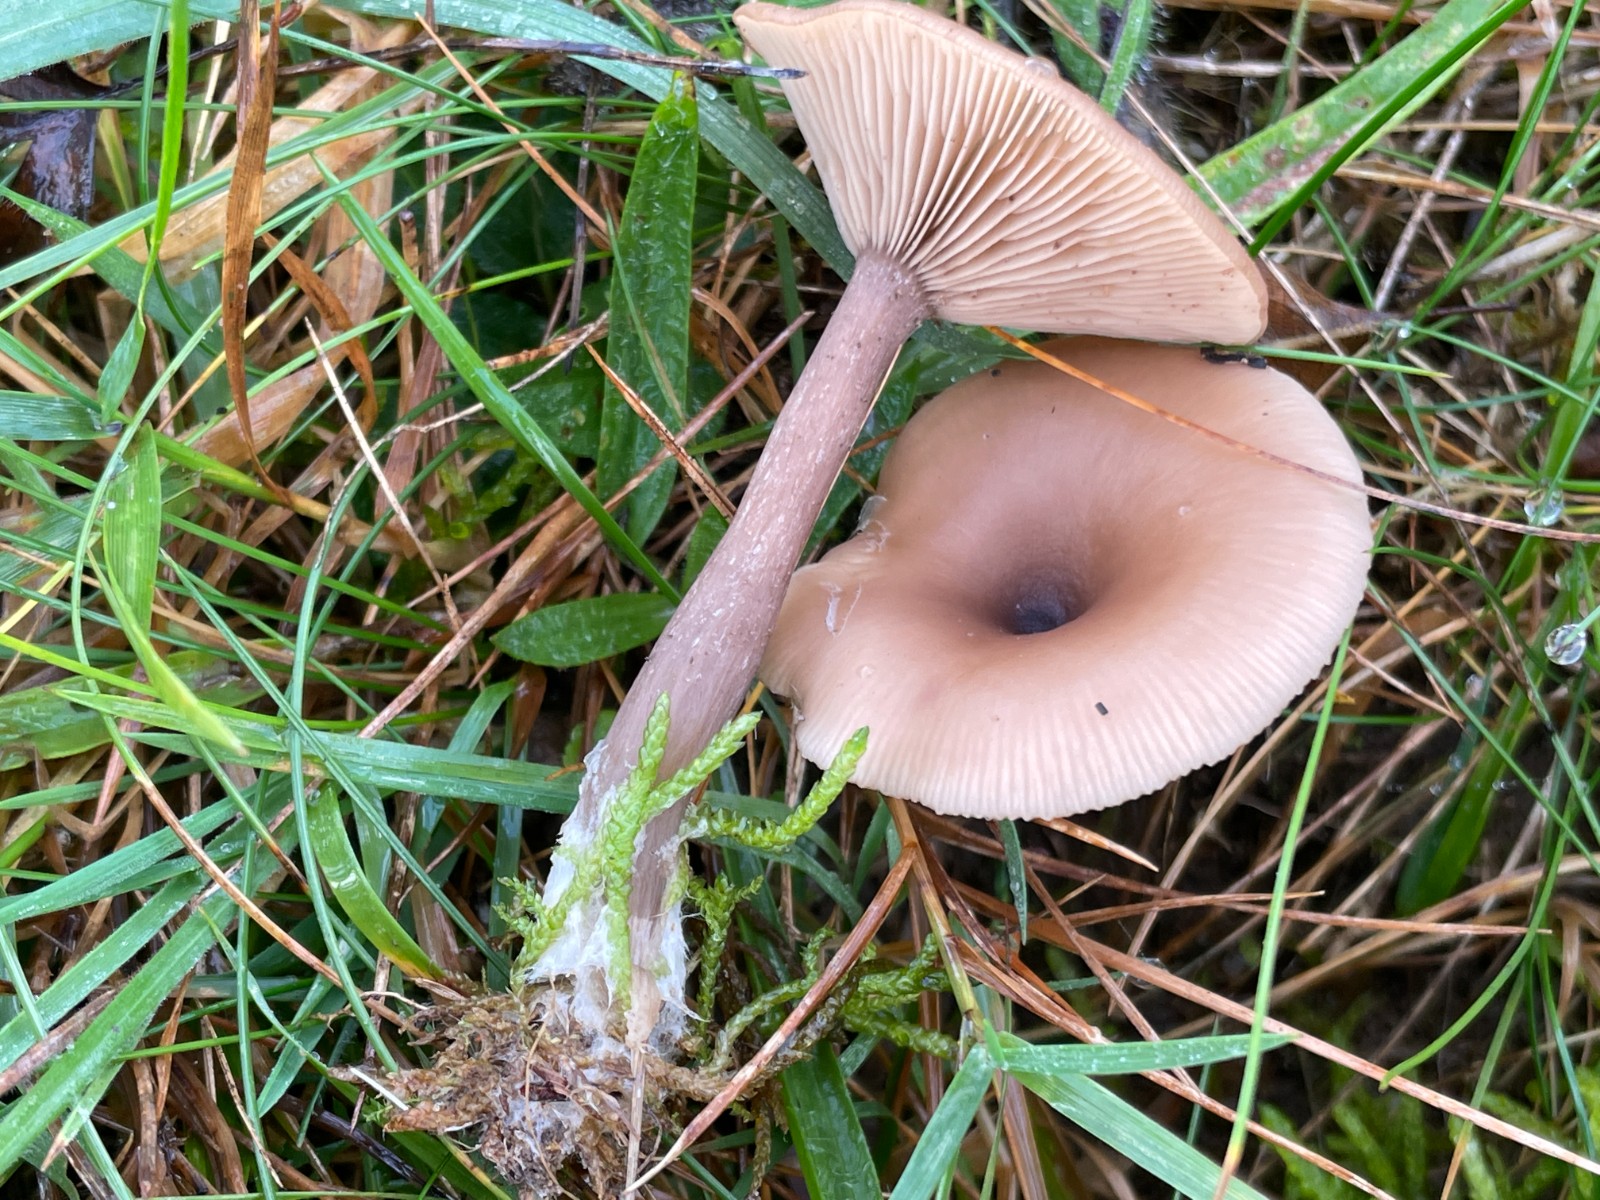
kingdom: Fungi
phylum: Basidiomycota
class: Agaricomycetes
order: Agaricales
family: Pseudoclitocybaceae
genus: Pseudoclitocybe
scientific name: Pseudoclitocybe expallens
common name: lille bægertragthat
